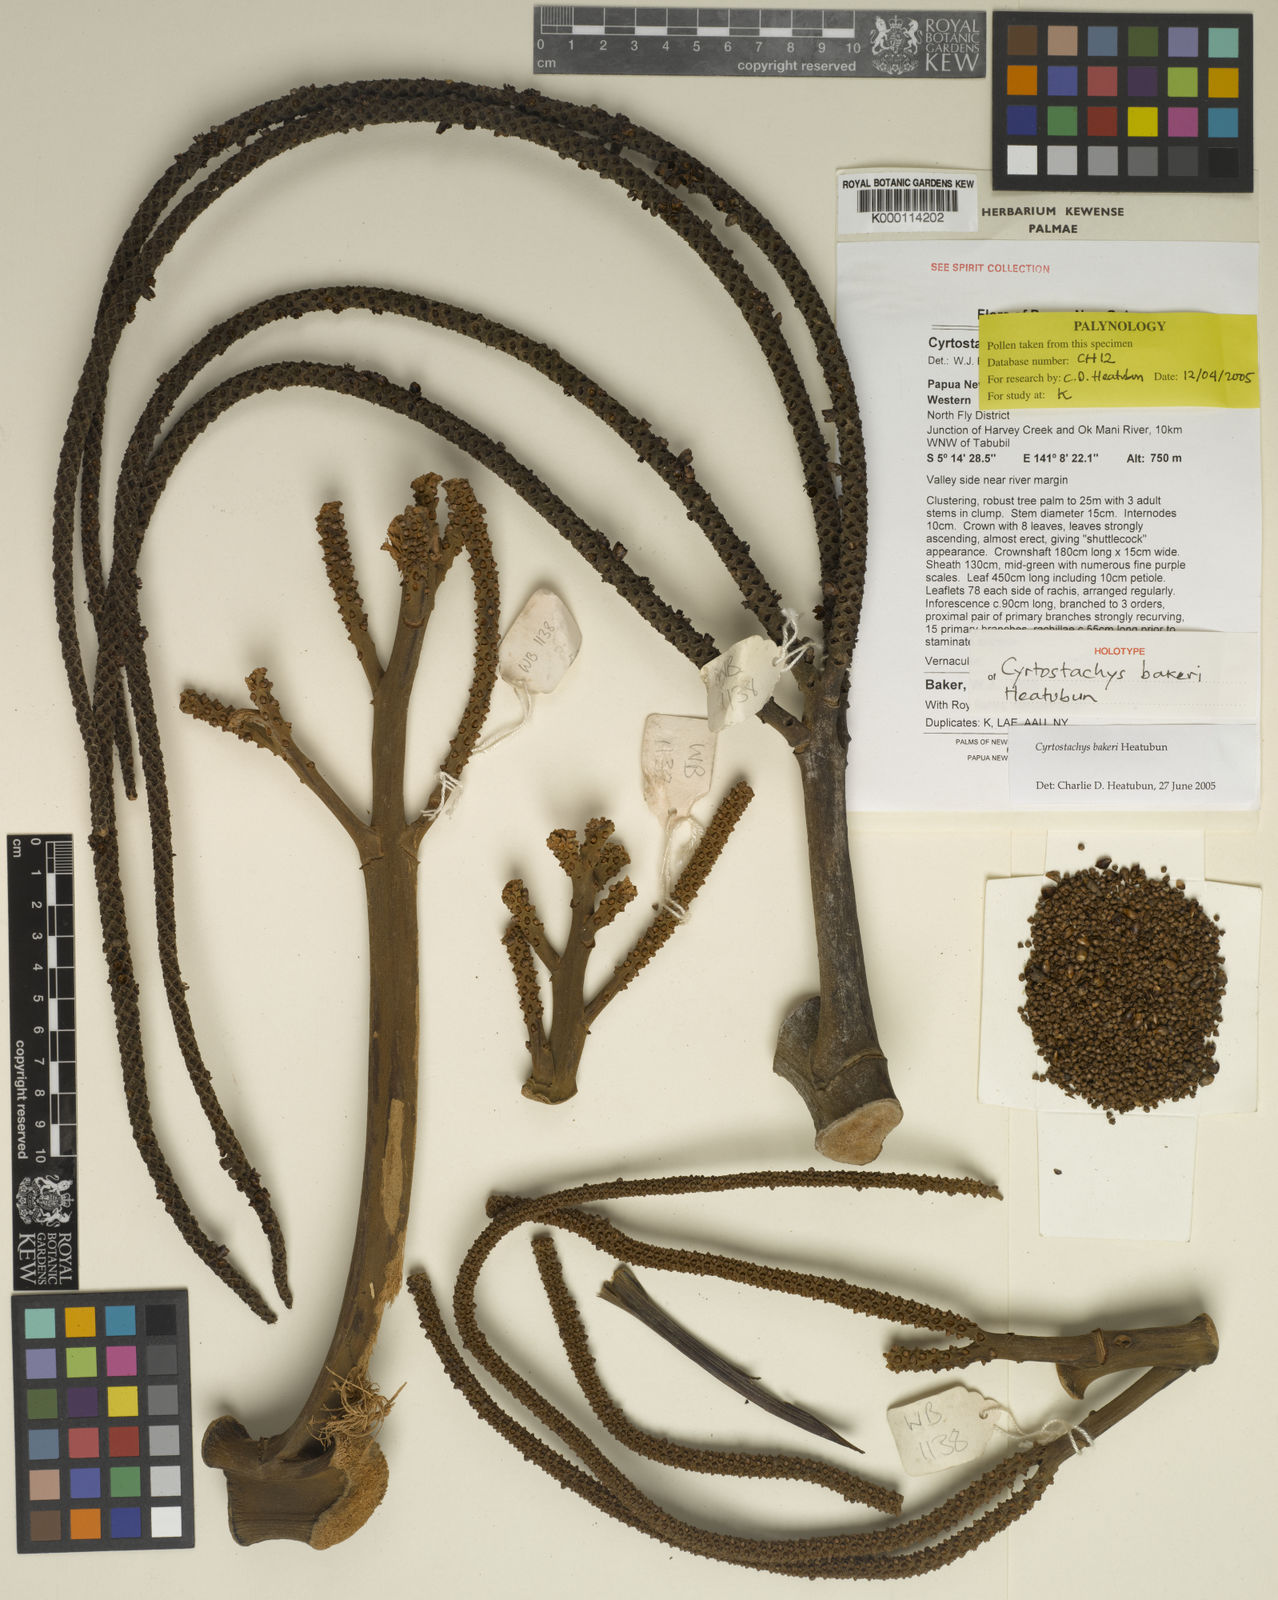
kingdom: Plantae
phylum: Tracheophyta
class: Liliopsida
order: Arecales
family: Arecaceae
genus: Cyrtostachys
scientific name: Cyrtostachys bakeri
